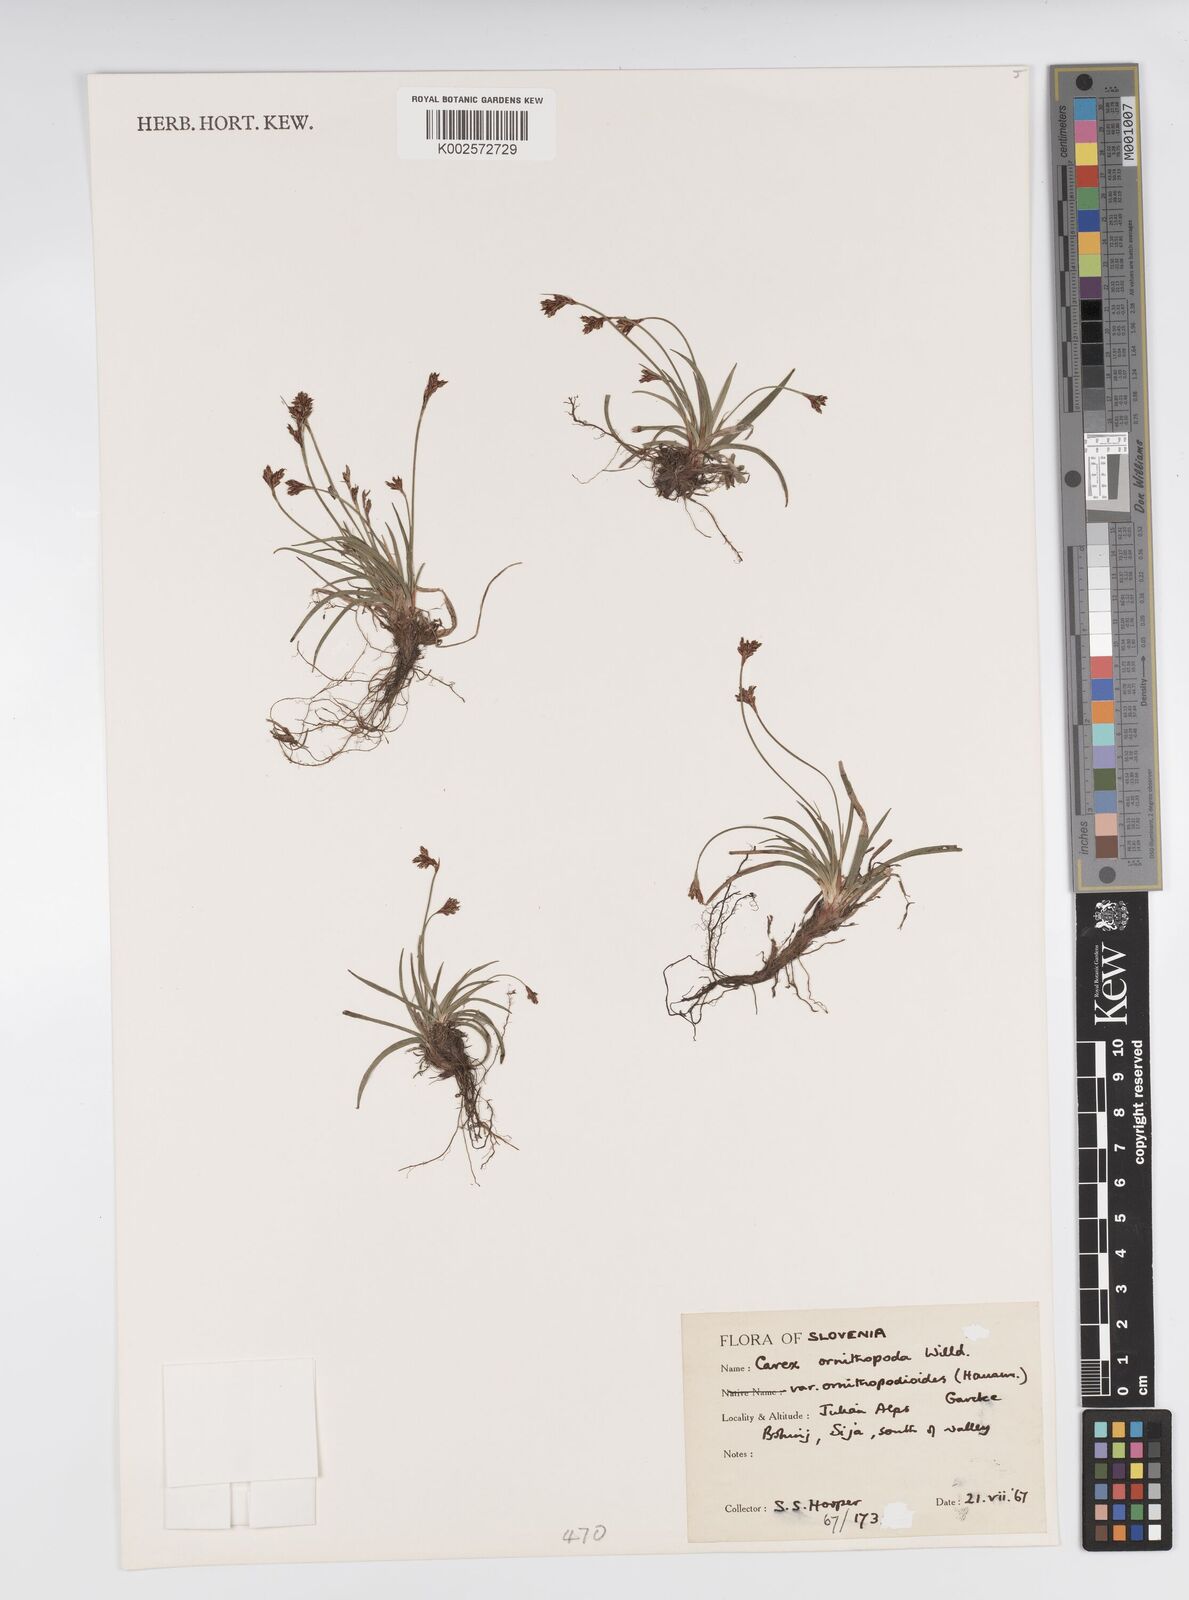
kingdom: Plantae
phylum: Tracheophyta
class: Liliopsida
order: Poales
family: Cyperaceae
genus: Carex
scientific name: Carex ornithopoda
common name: Bird's-foot sedge
